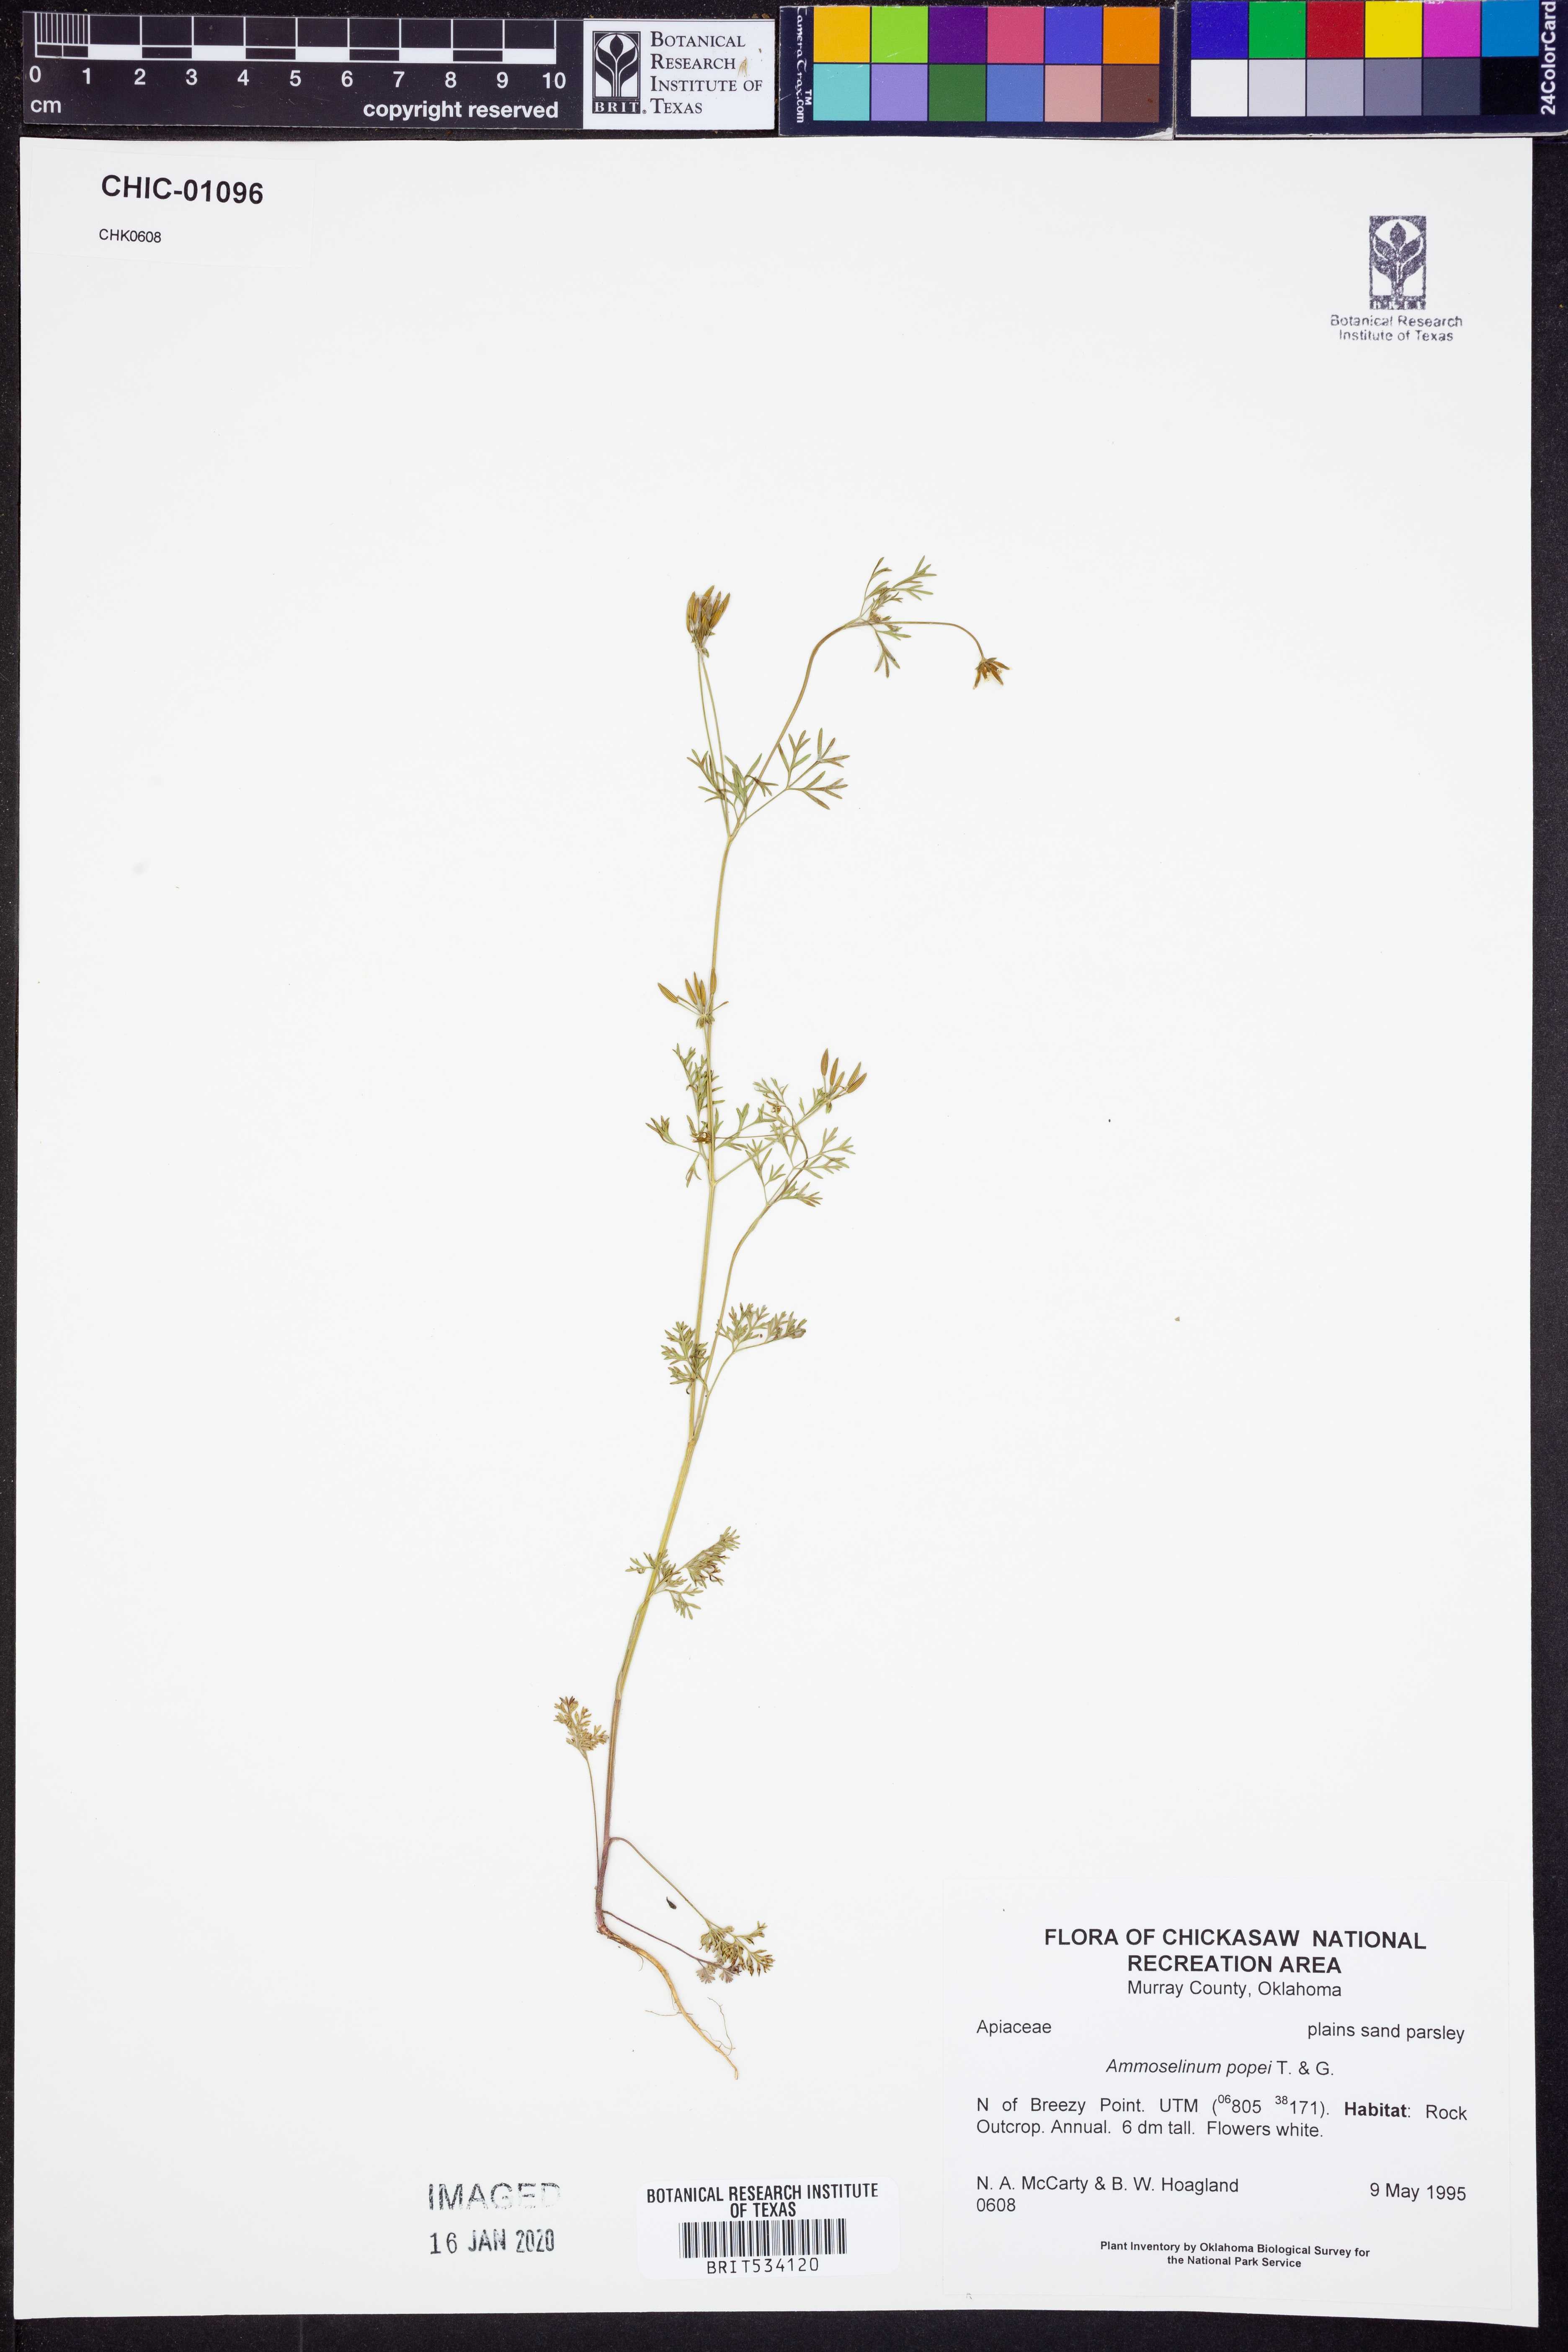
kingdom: Plantae
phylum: Tracheophyta
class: Magnoliopsida
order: Apiales
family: Apiaceae
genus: Ammoselinum
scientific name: Ammoselinum popei
